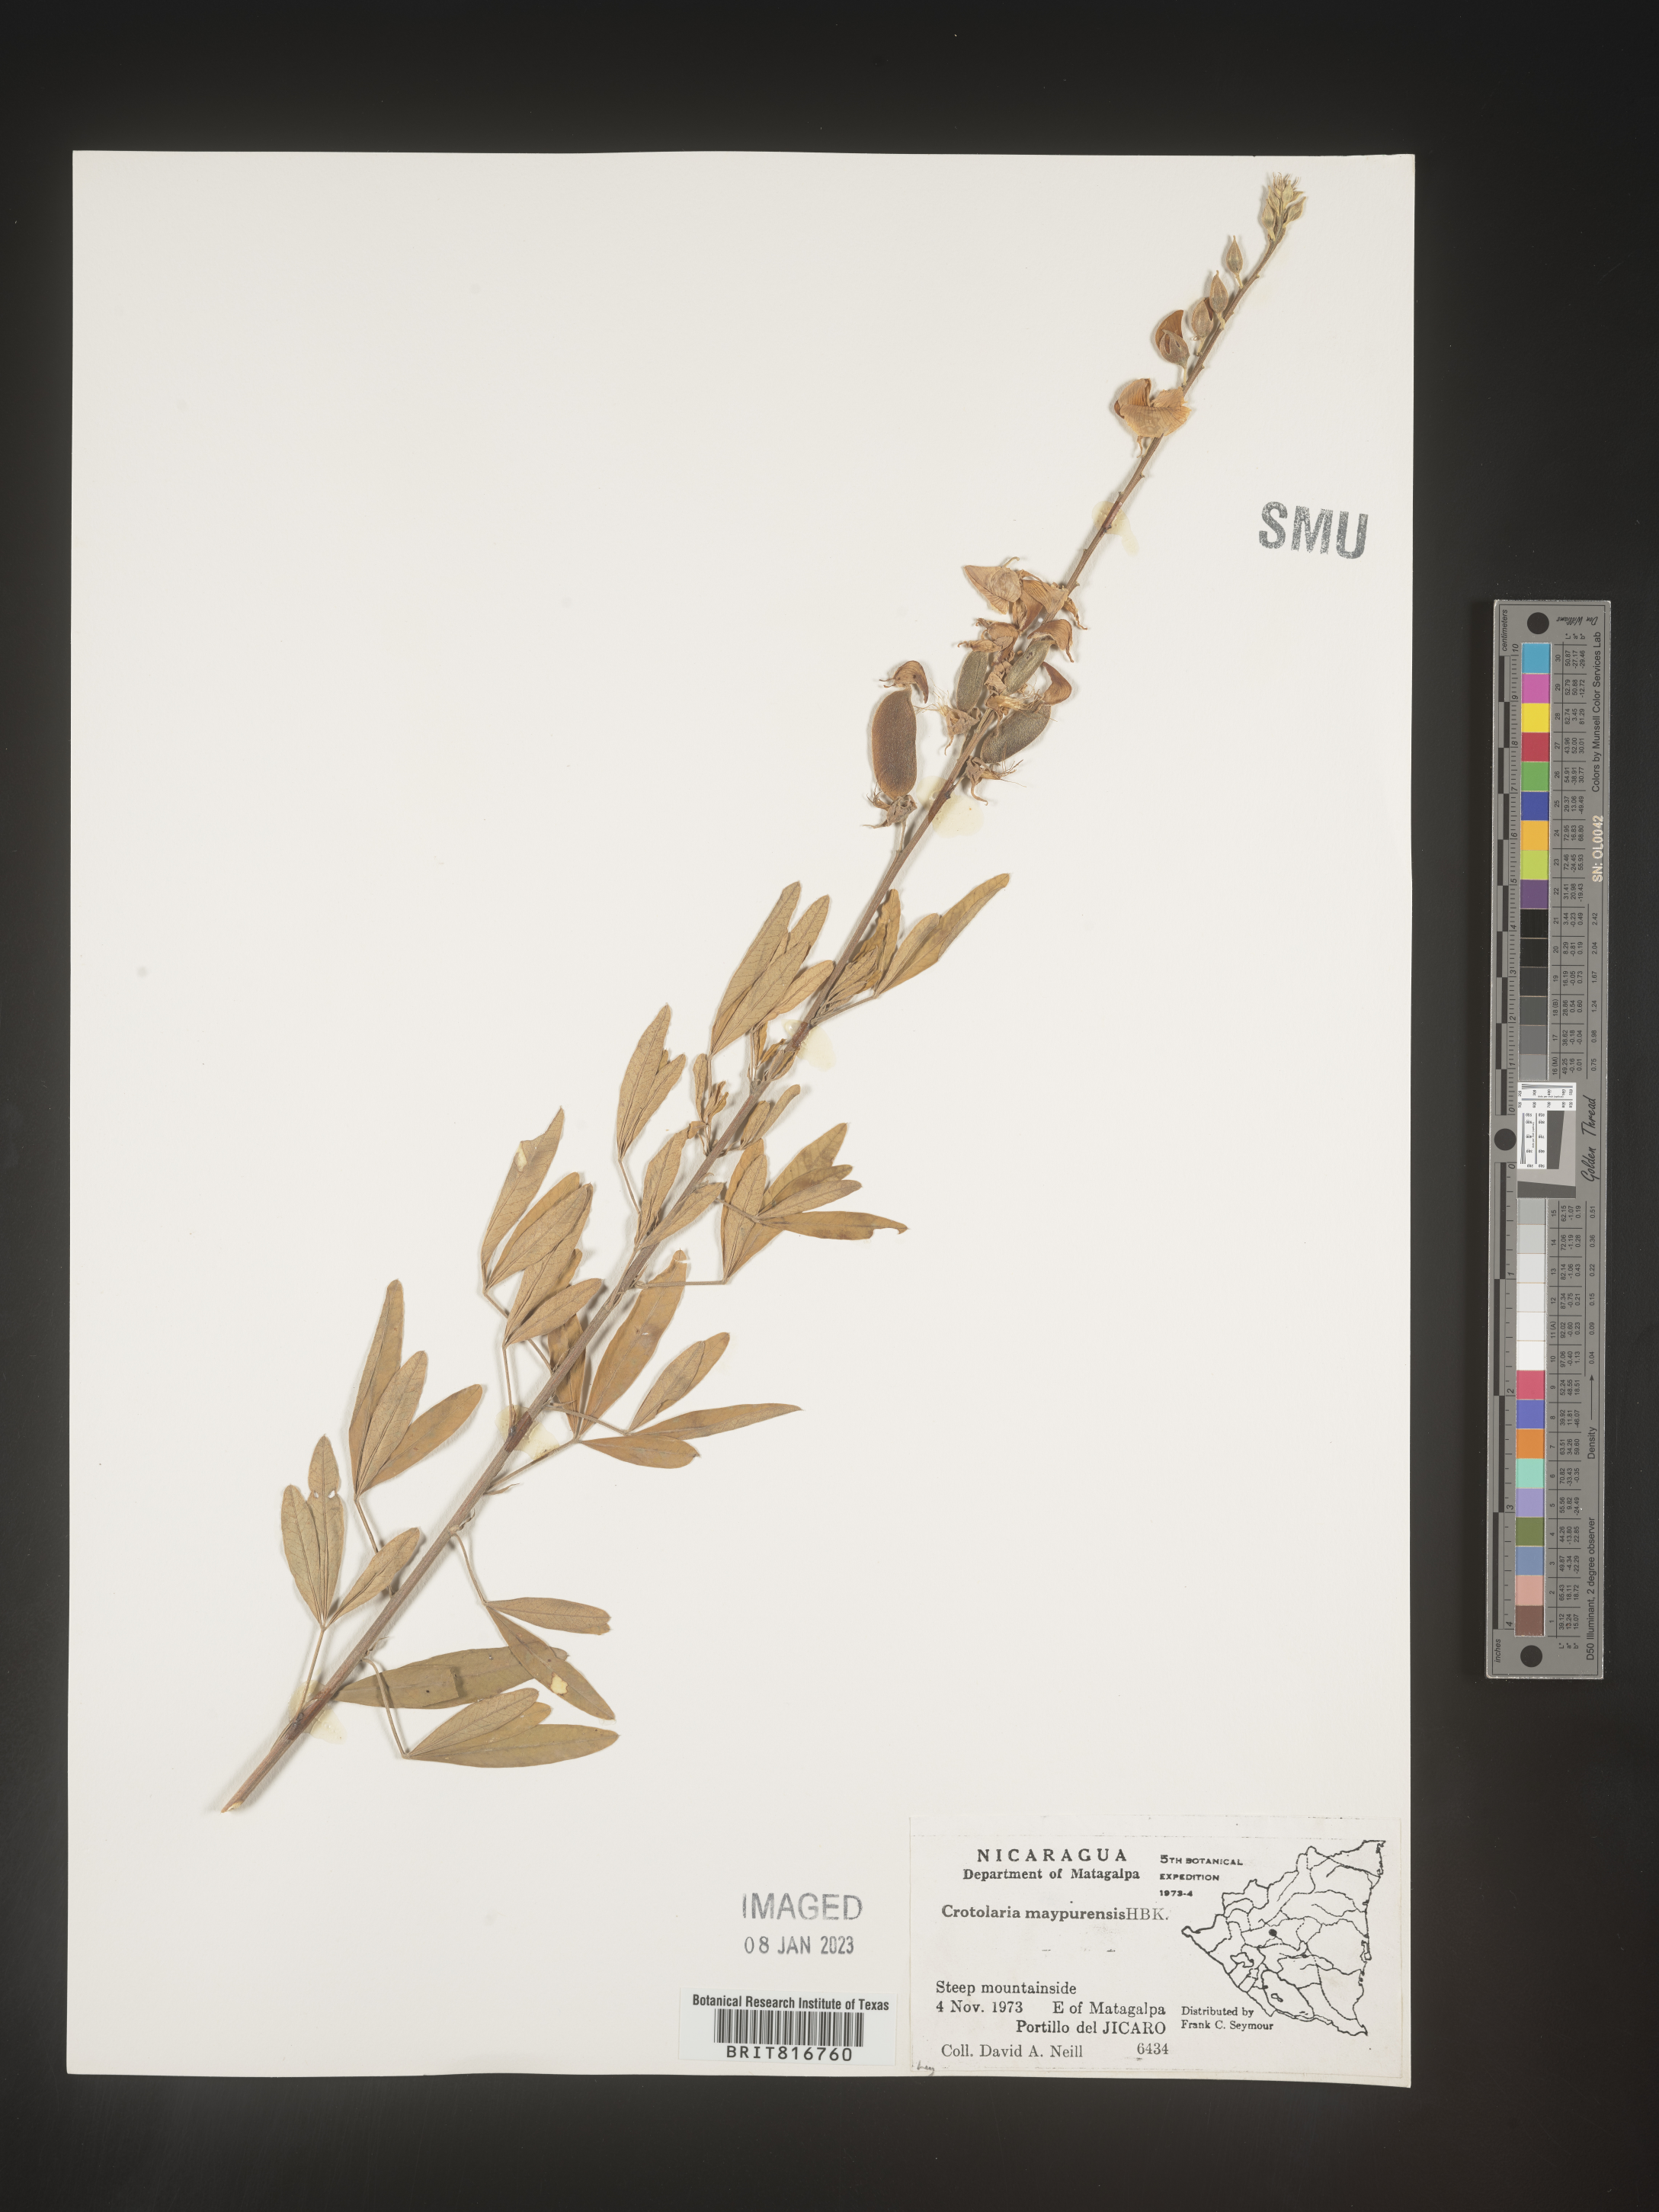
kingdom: Plantae
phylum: Tracheophyta
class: Magnoliopsida
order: Fabales
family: Fabaceae
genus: Crotalaria
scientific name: Crotalaria
